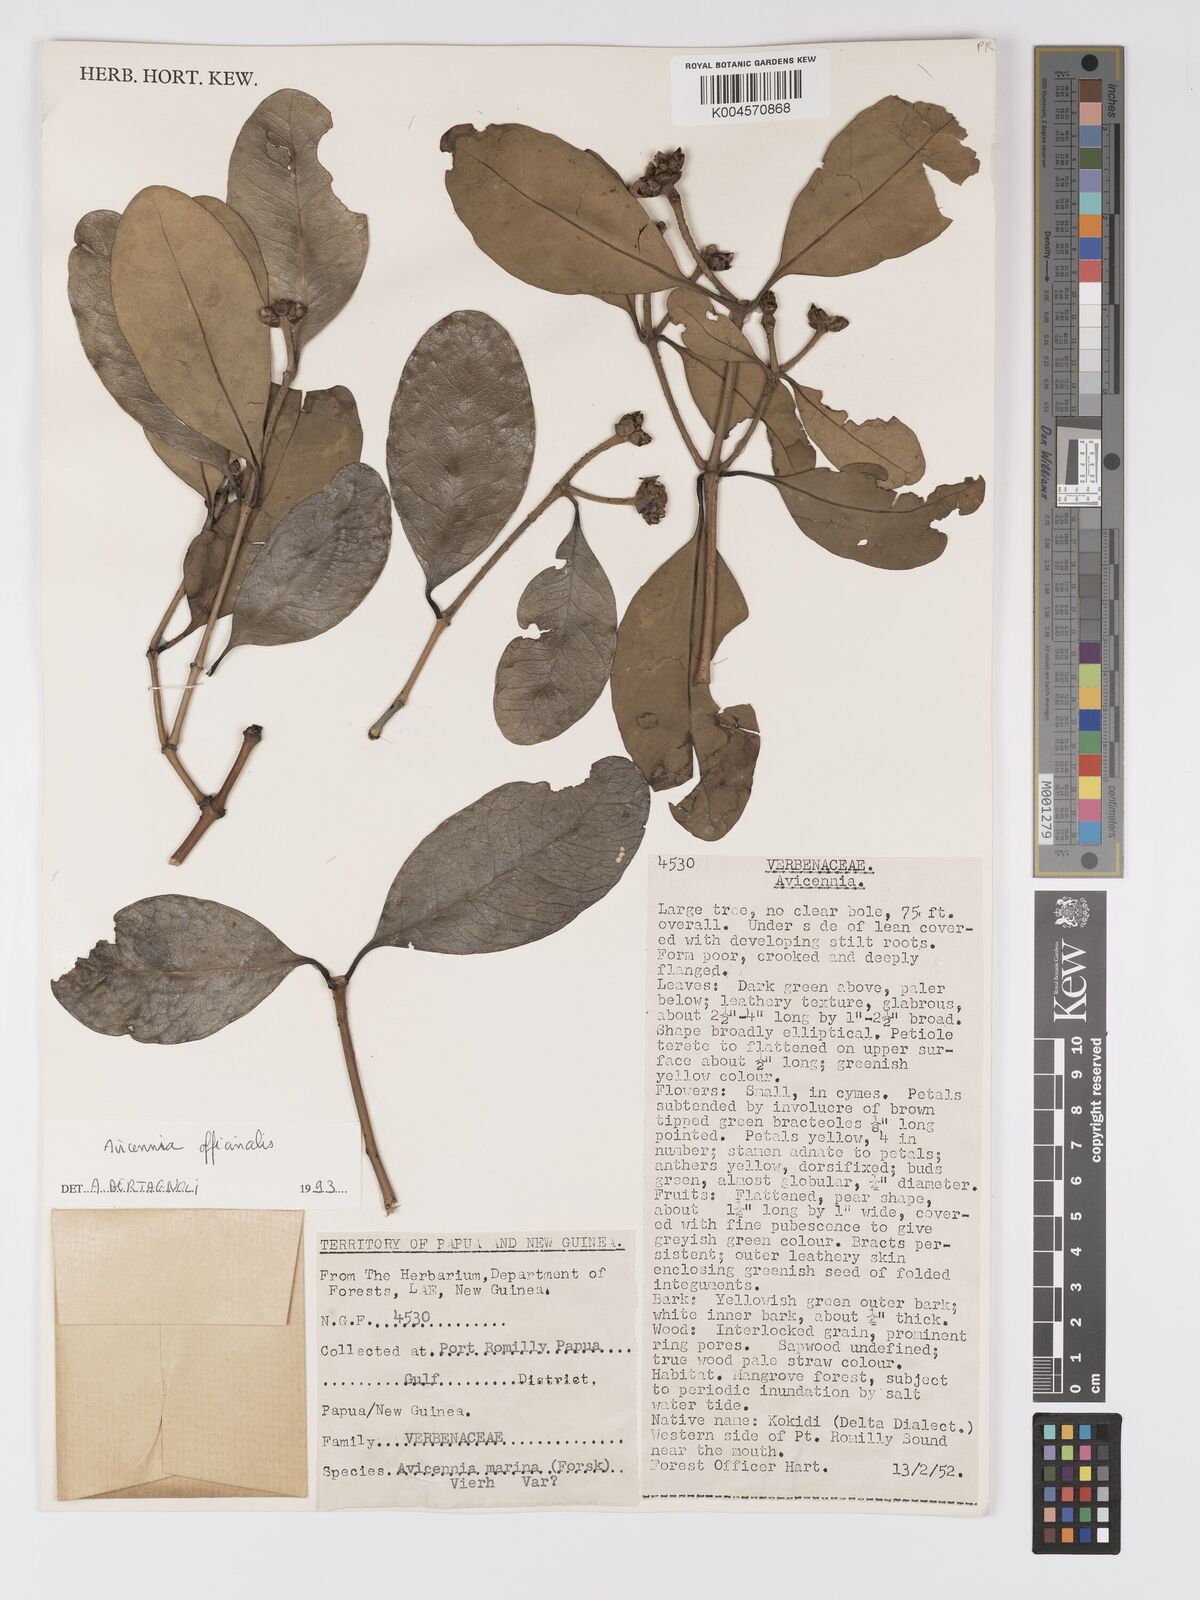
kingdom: Plantae
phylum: Tracheophyta
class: Magnoliopsida
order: Lamiales
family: Acanthaceae
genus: Avicennia
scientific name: Avicennia officinalis
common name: Baen
